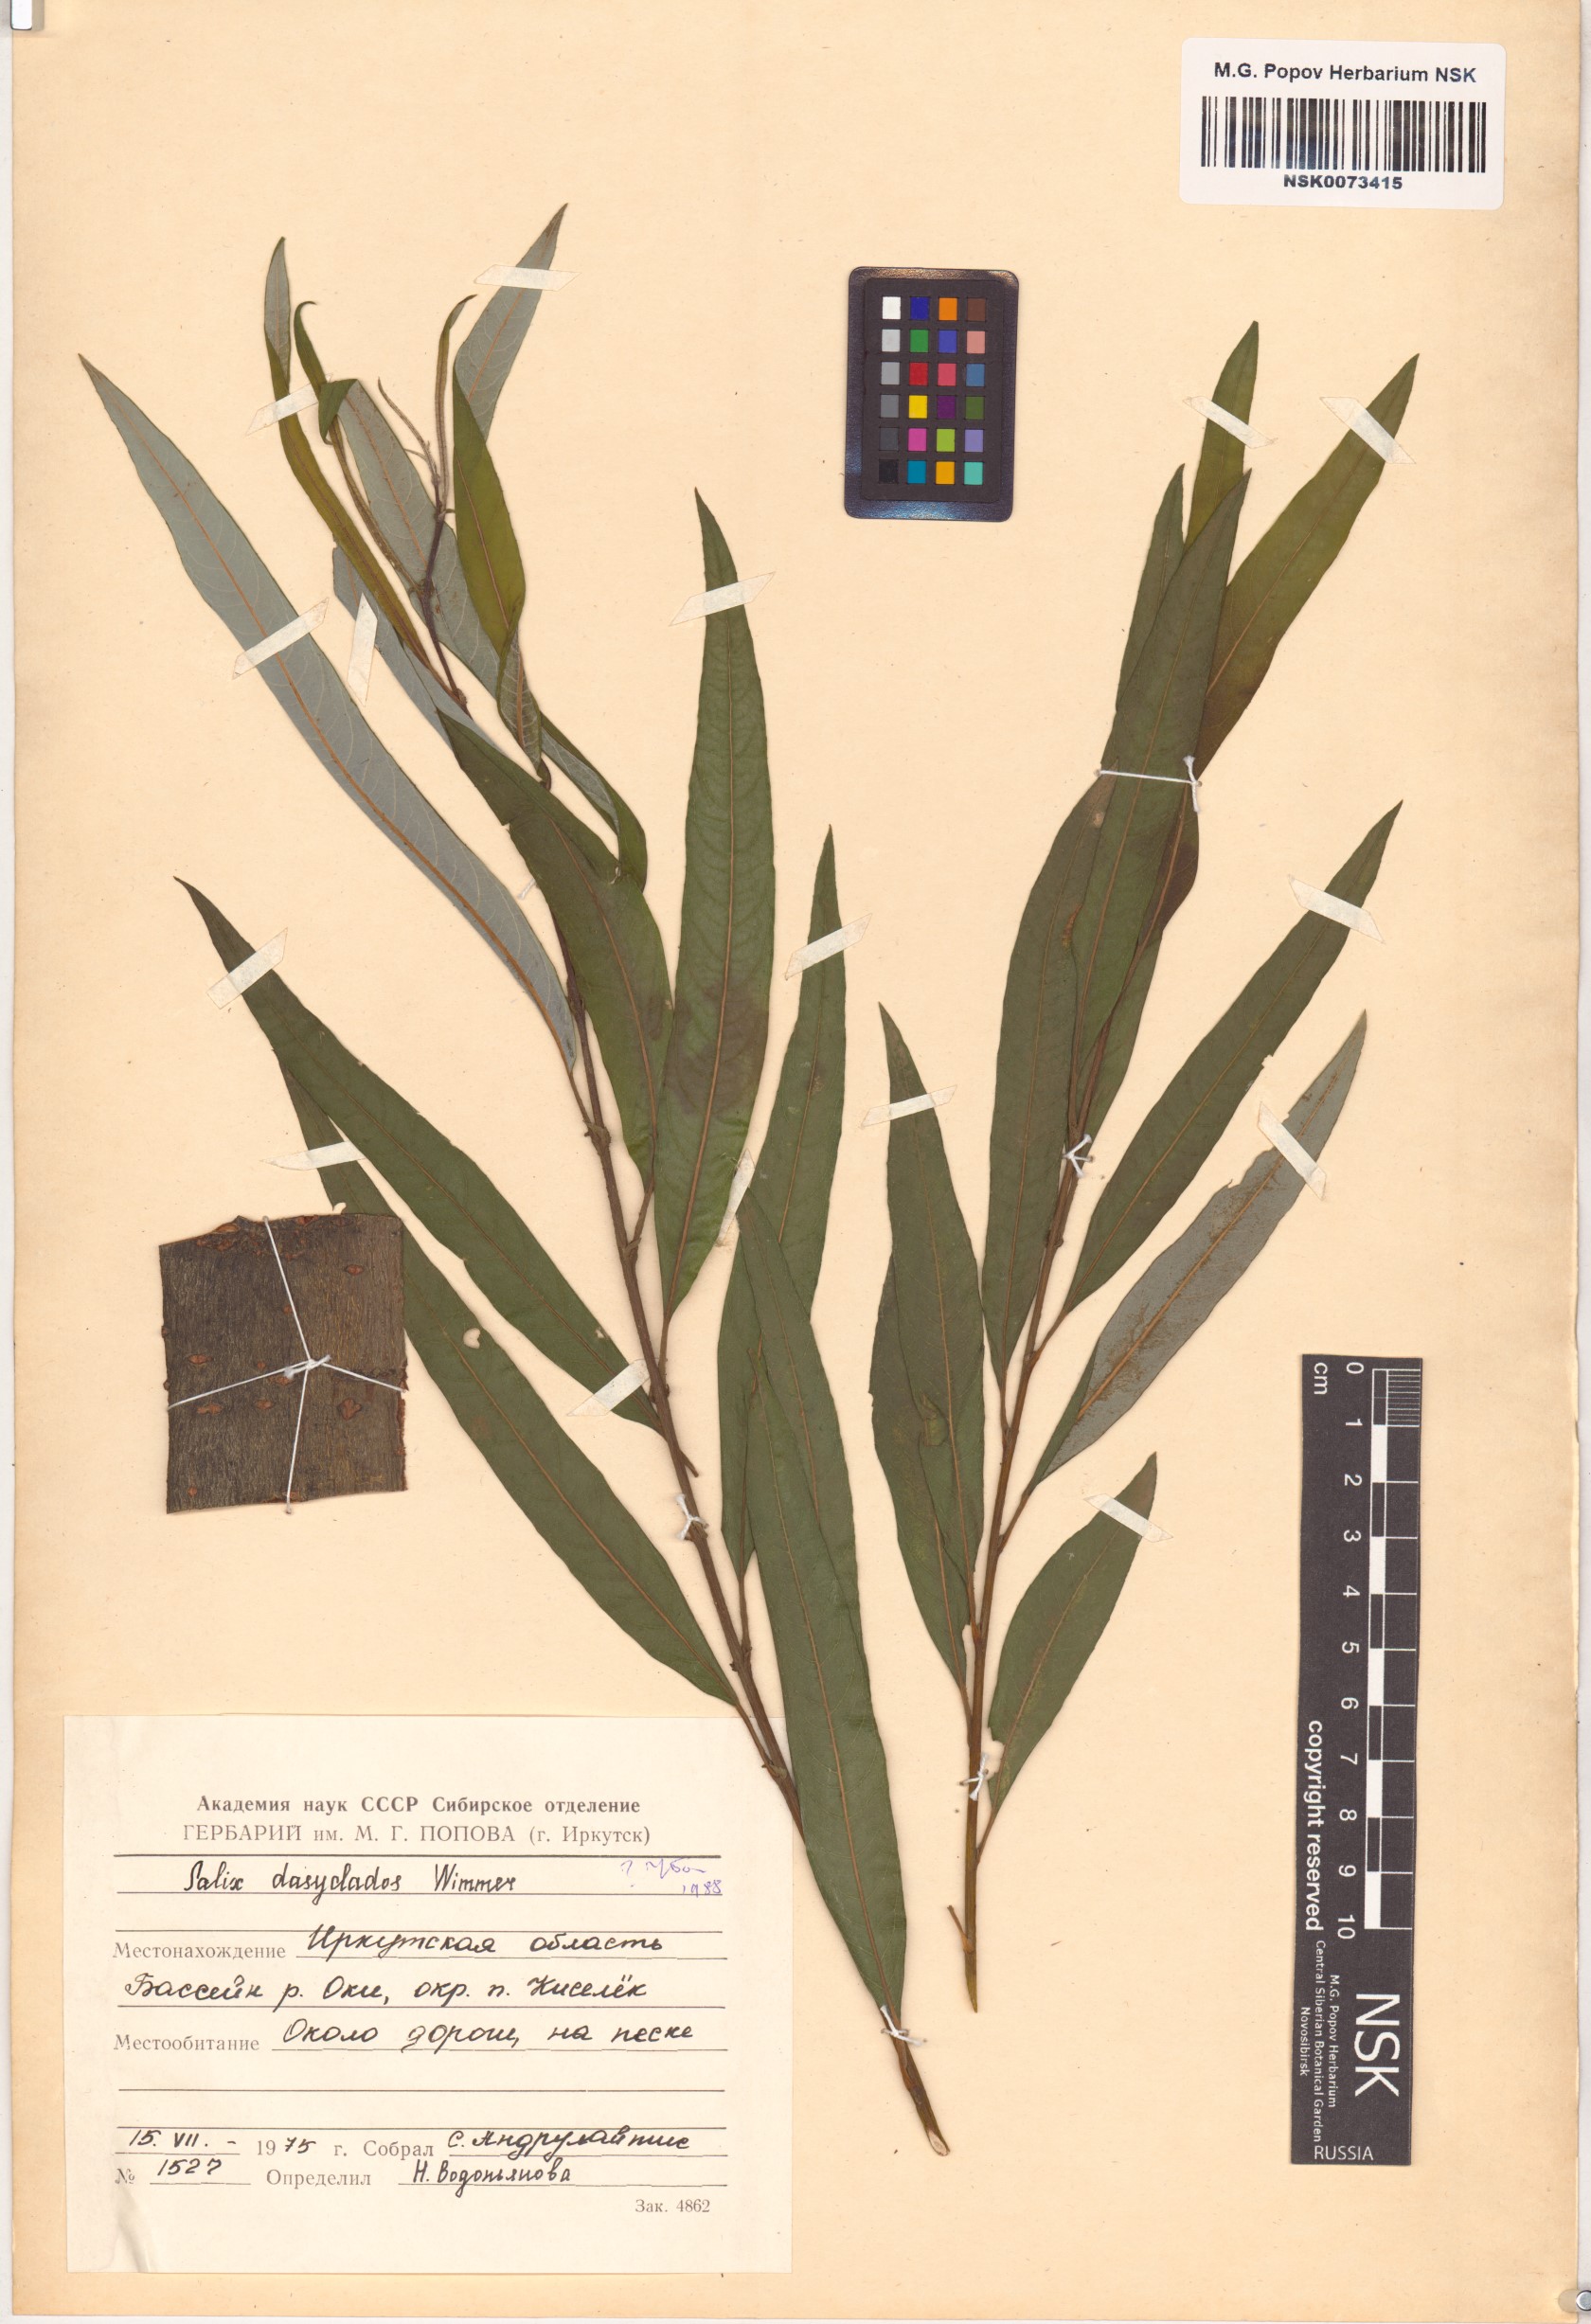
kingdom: Plantae
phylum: Tracheophyta
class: Magnoliopsida
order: Malpighiales
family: Salicaceae
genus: Salix
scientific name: Salix gmelinii
